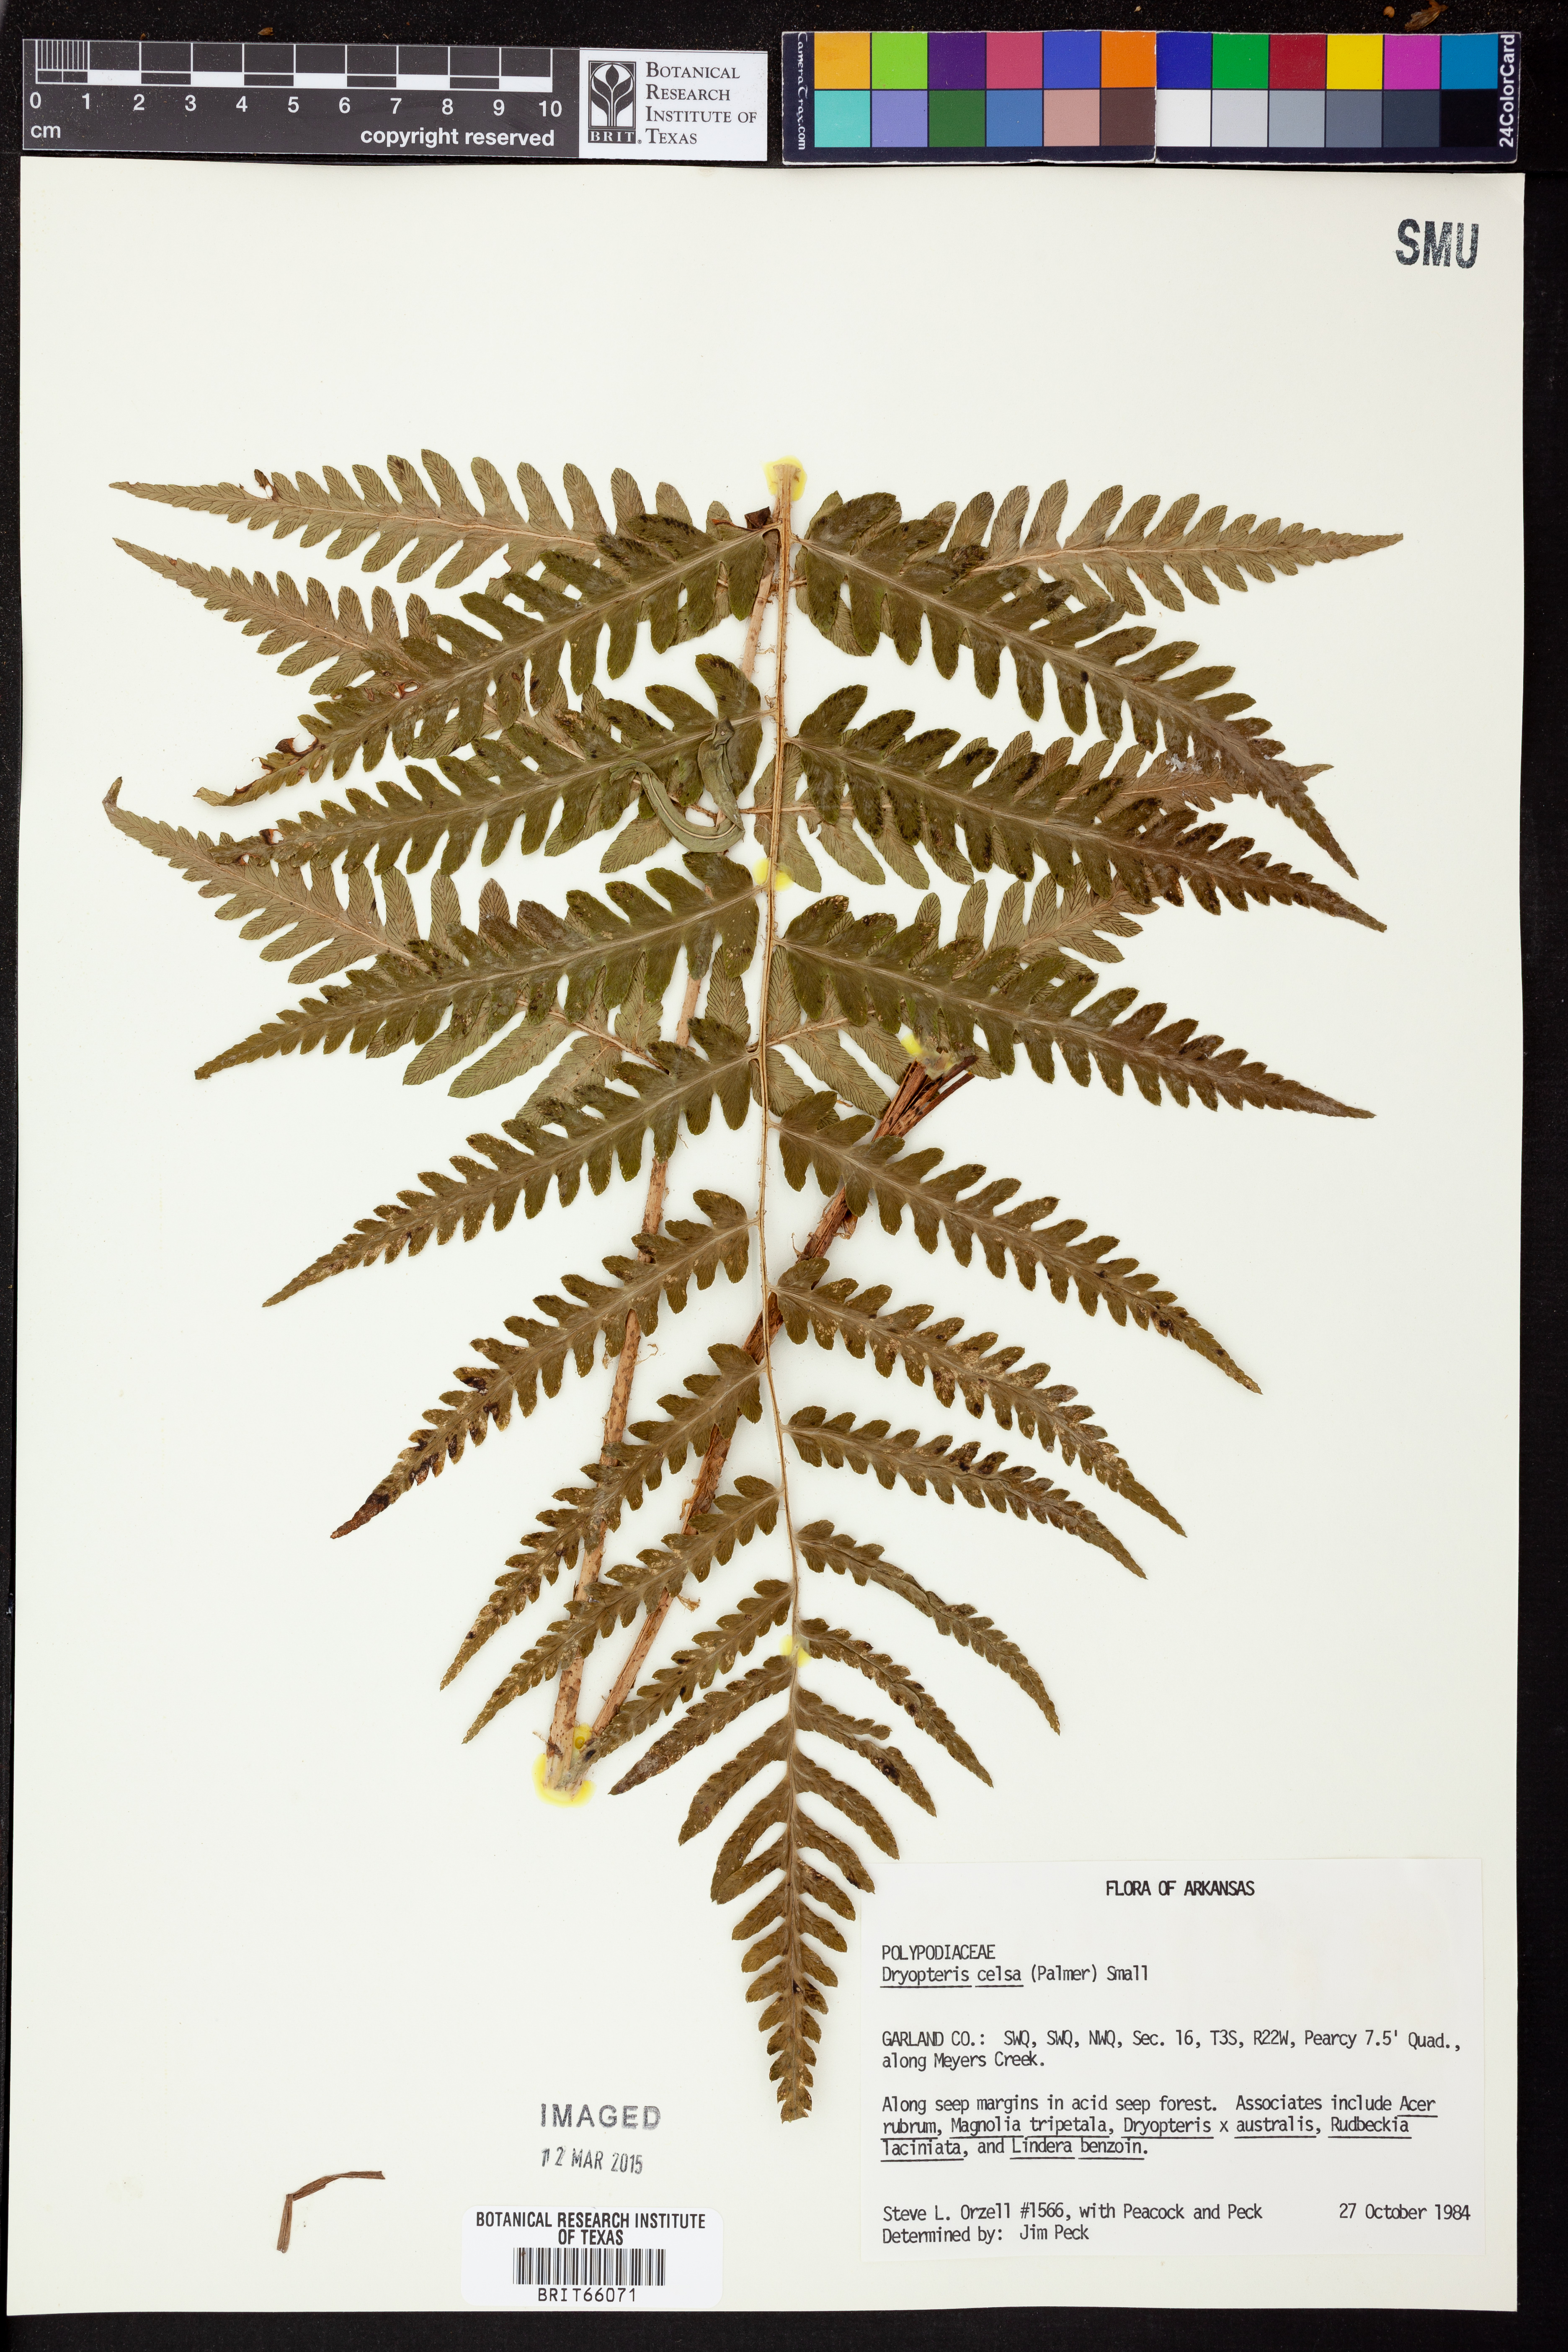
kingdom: Plantae
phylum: Tracheophyta
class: Polypodiopsida
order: Polypodiales
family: Dryopteridaceae
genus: Dryopteris
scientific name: Dryopteris celsa
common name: Log fern
